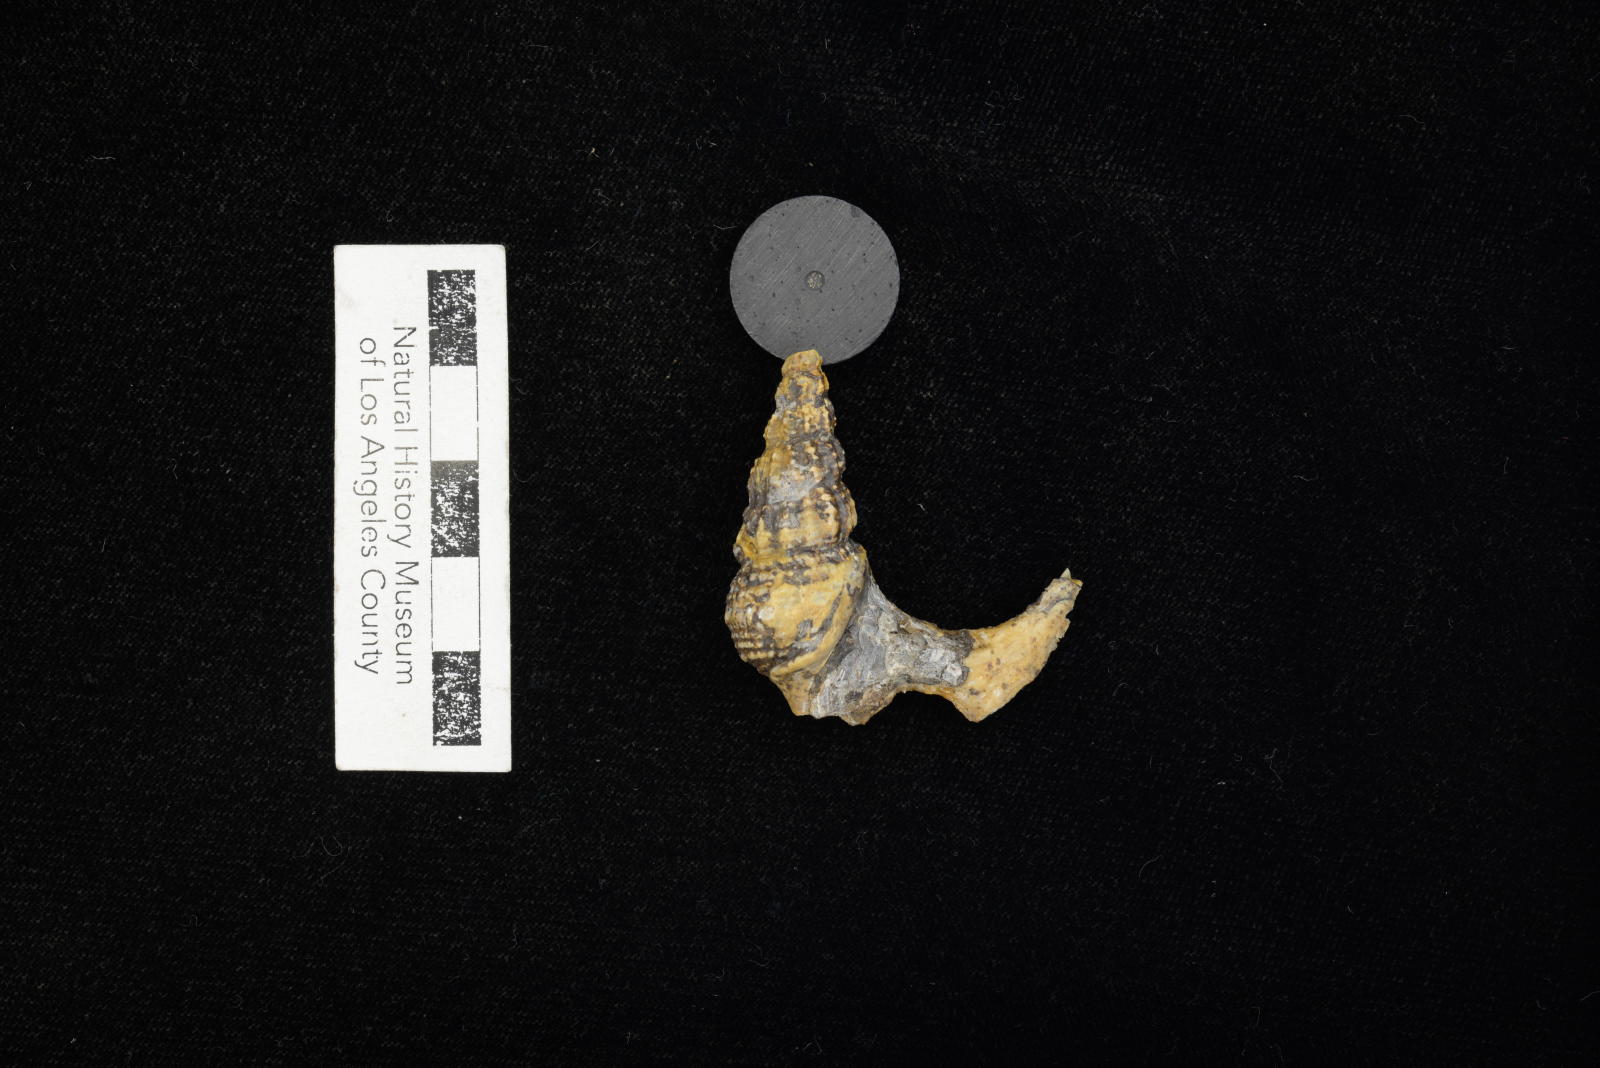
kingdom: Animalia
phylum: Mollusca
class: Gastropoda
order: Littorinimorpha
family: Aporrhaidae
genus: Anchura
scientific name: Anchura halberdopsis
